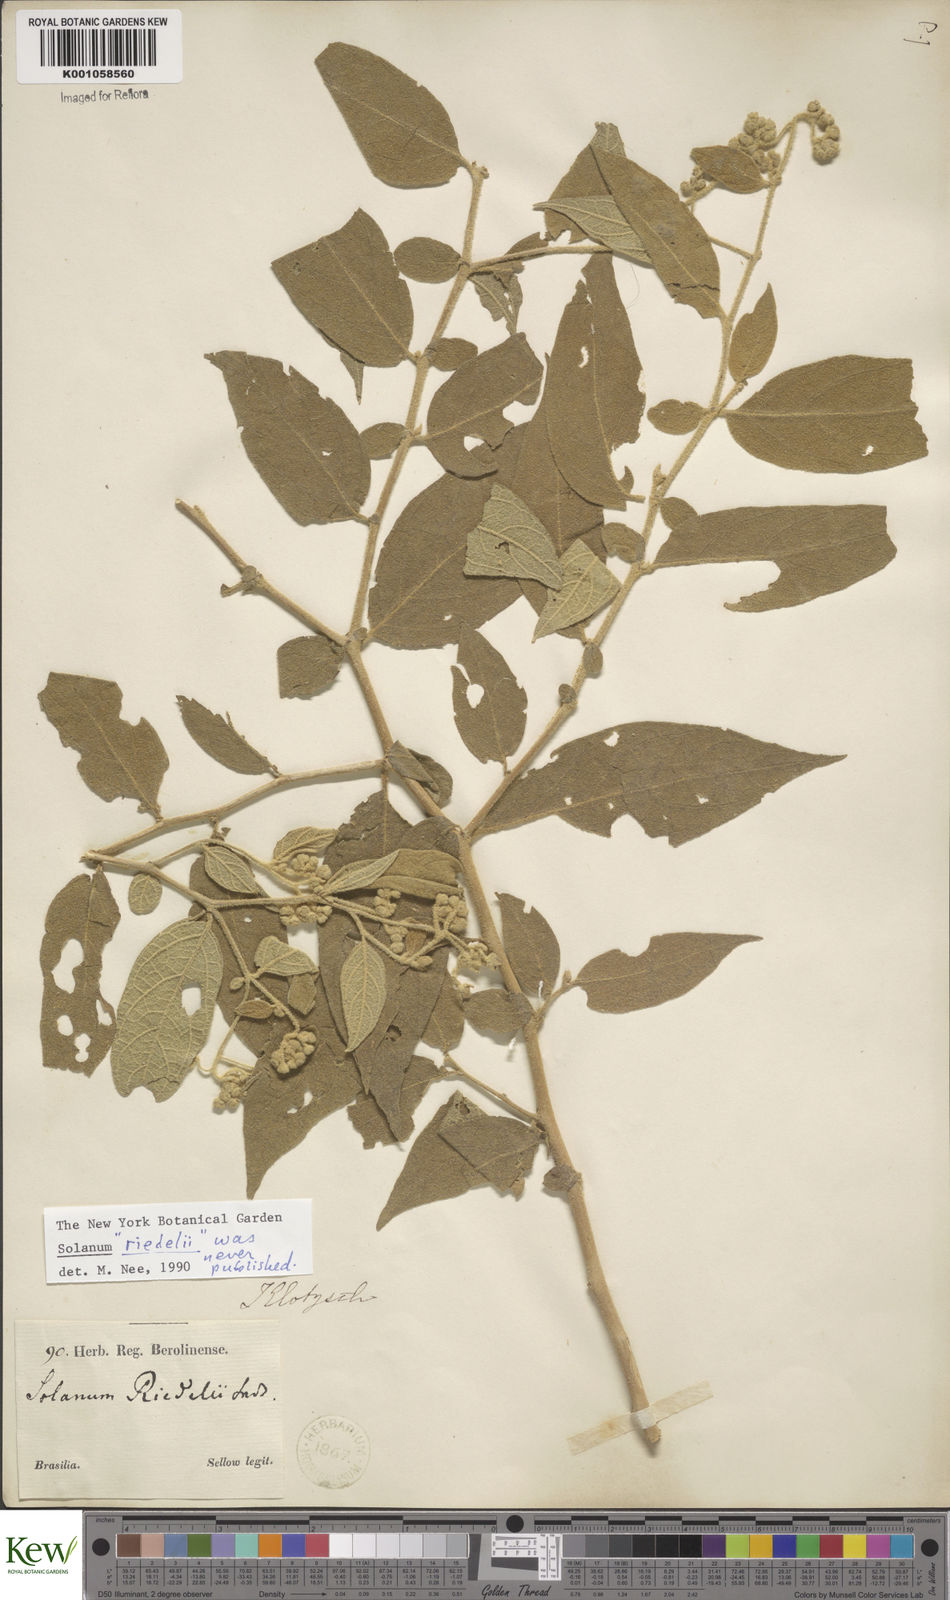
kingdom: Plantae
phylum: Tracheophyta
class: Magnoliopsida
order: Solanales
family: Solanaceae
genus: Solanum
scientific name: Solanum
